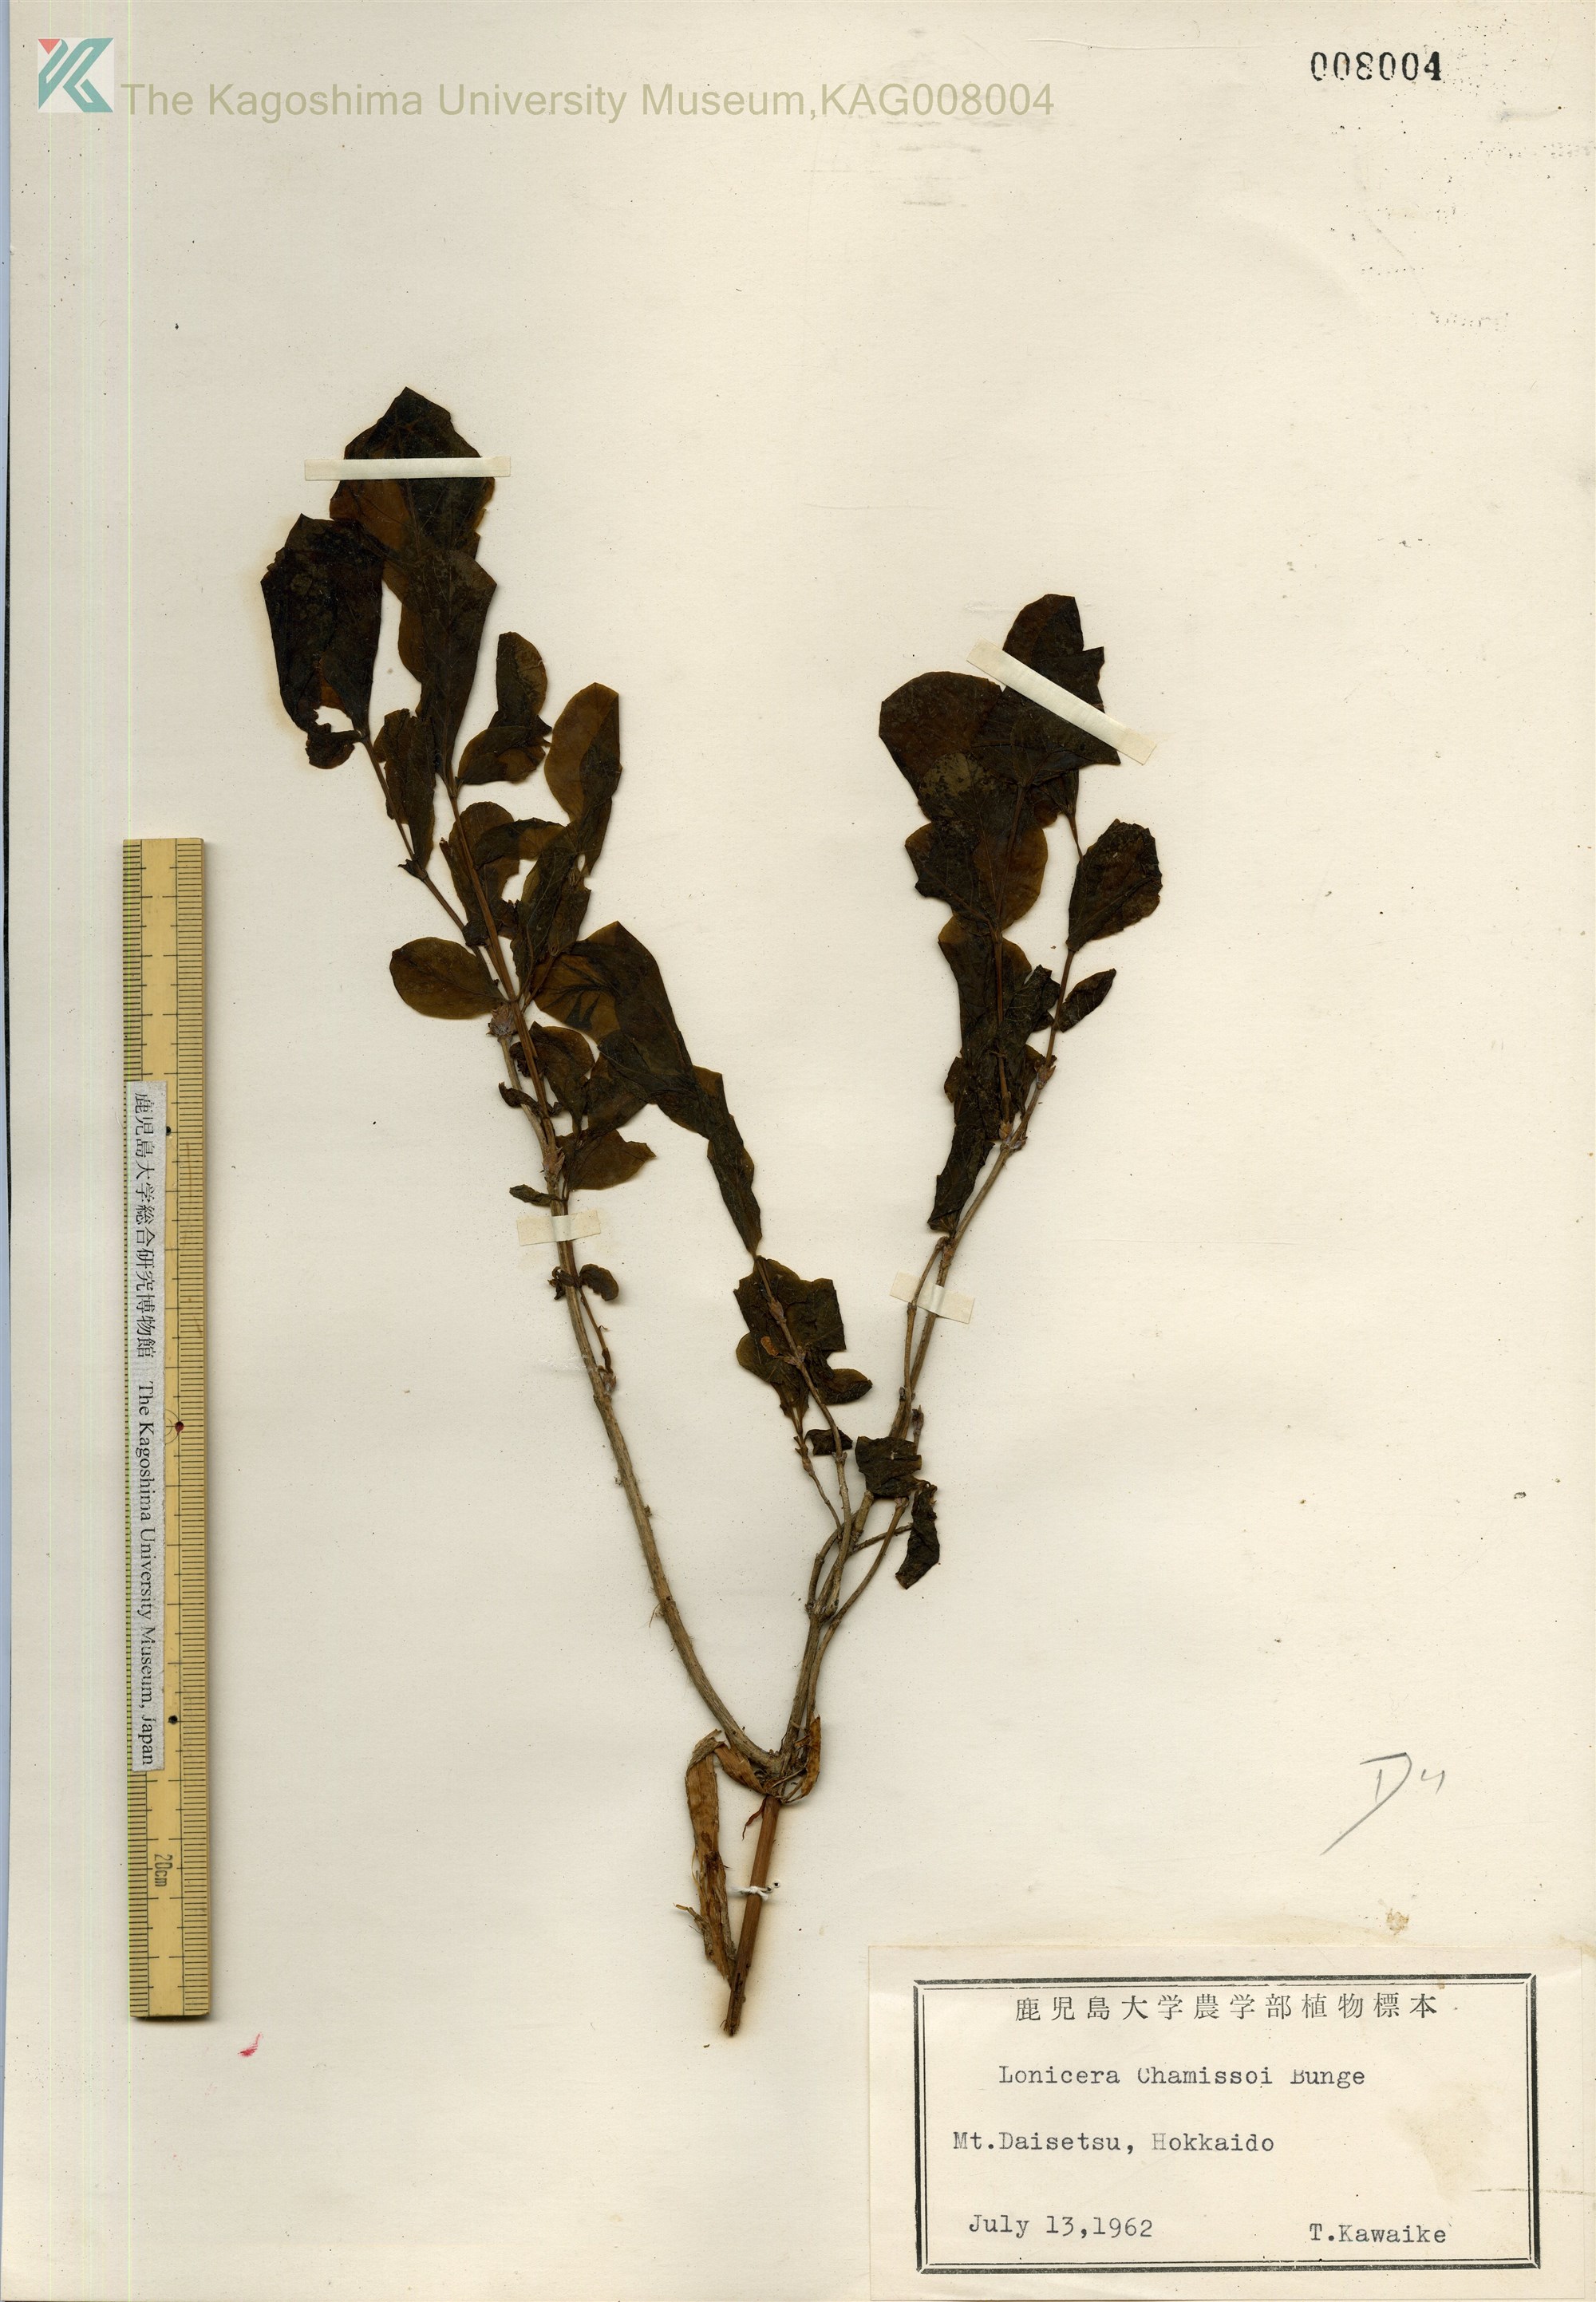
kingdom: Plantae
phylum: Tracheophyta
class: Magnoliopsida
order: Dipsacales
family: Caprifoliaceae
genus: Lonicera
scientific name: Lonicera chamissoi
